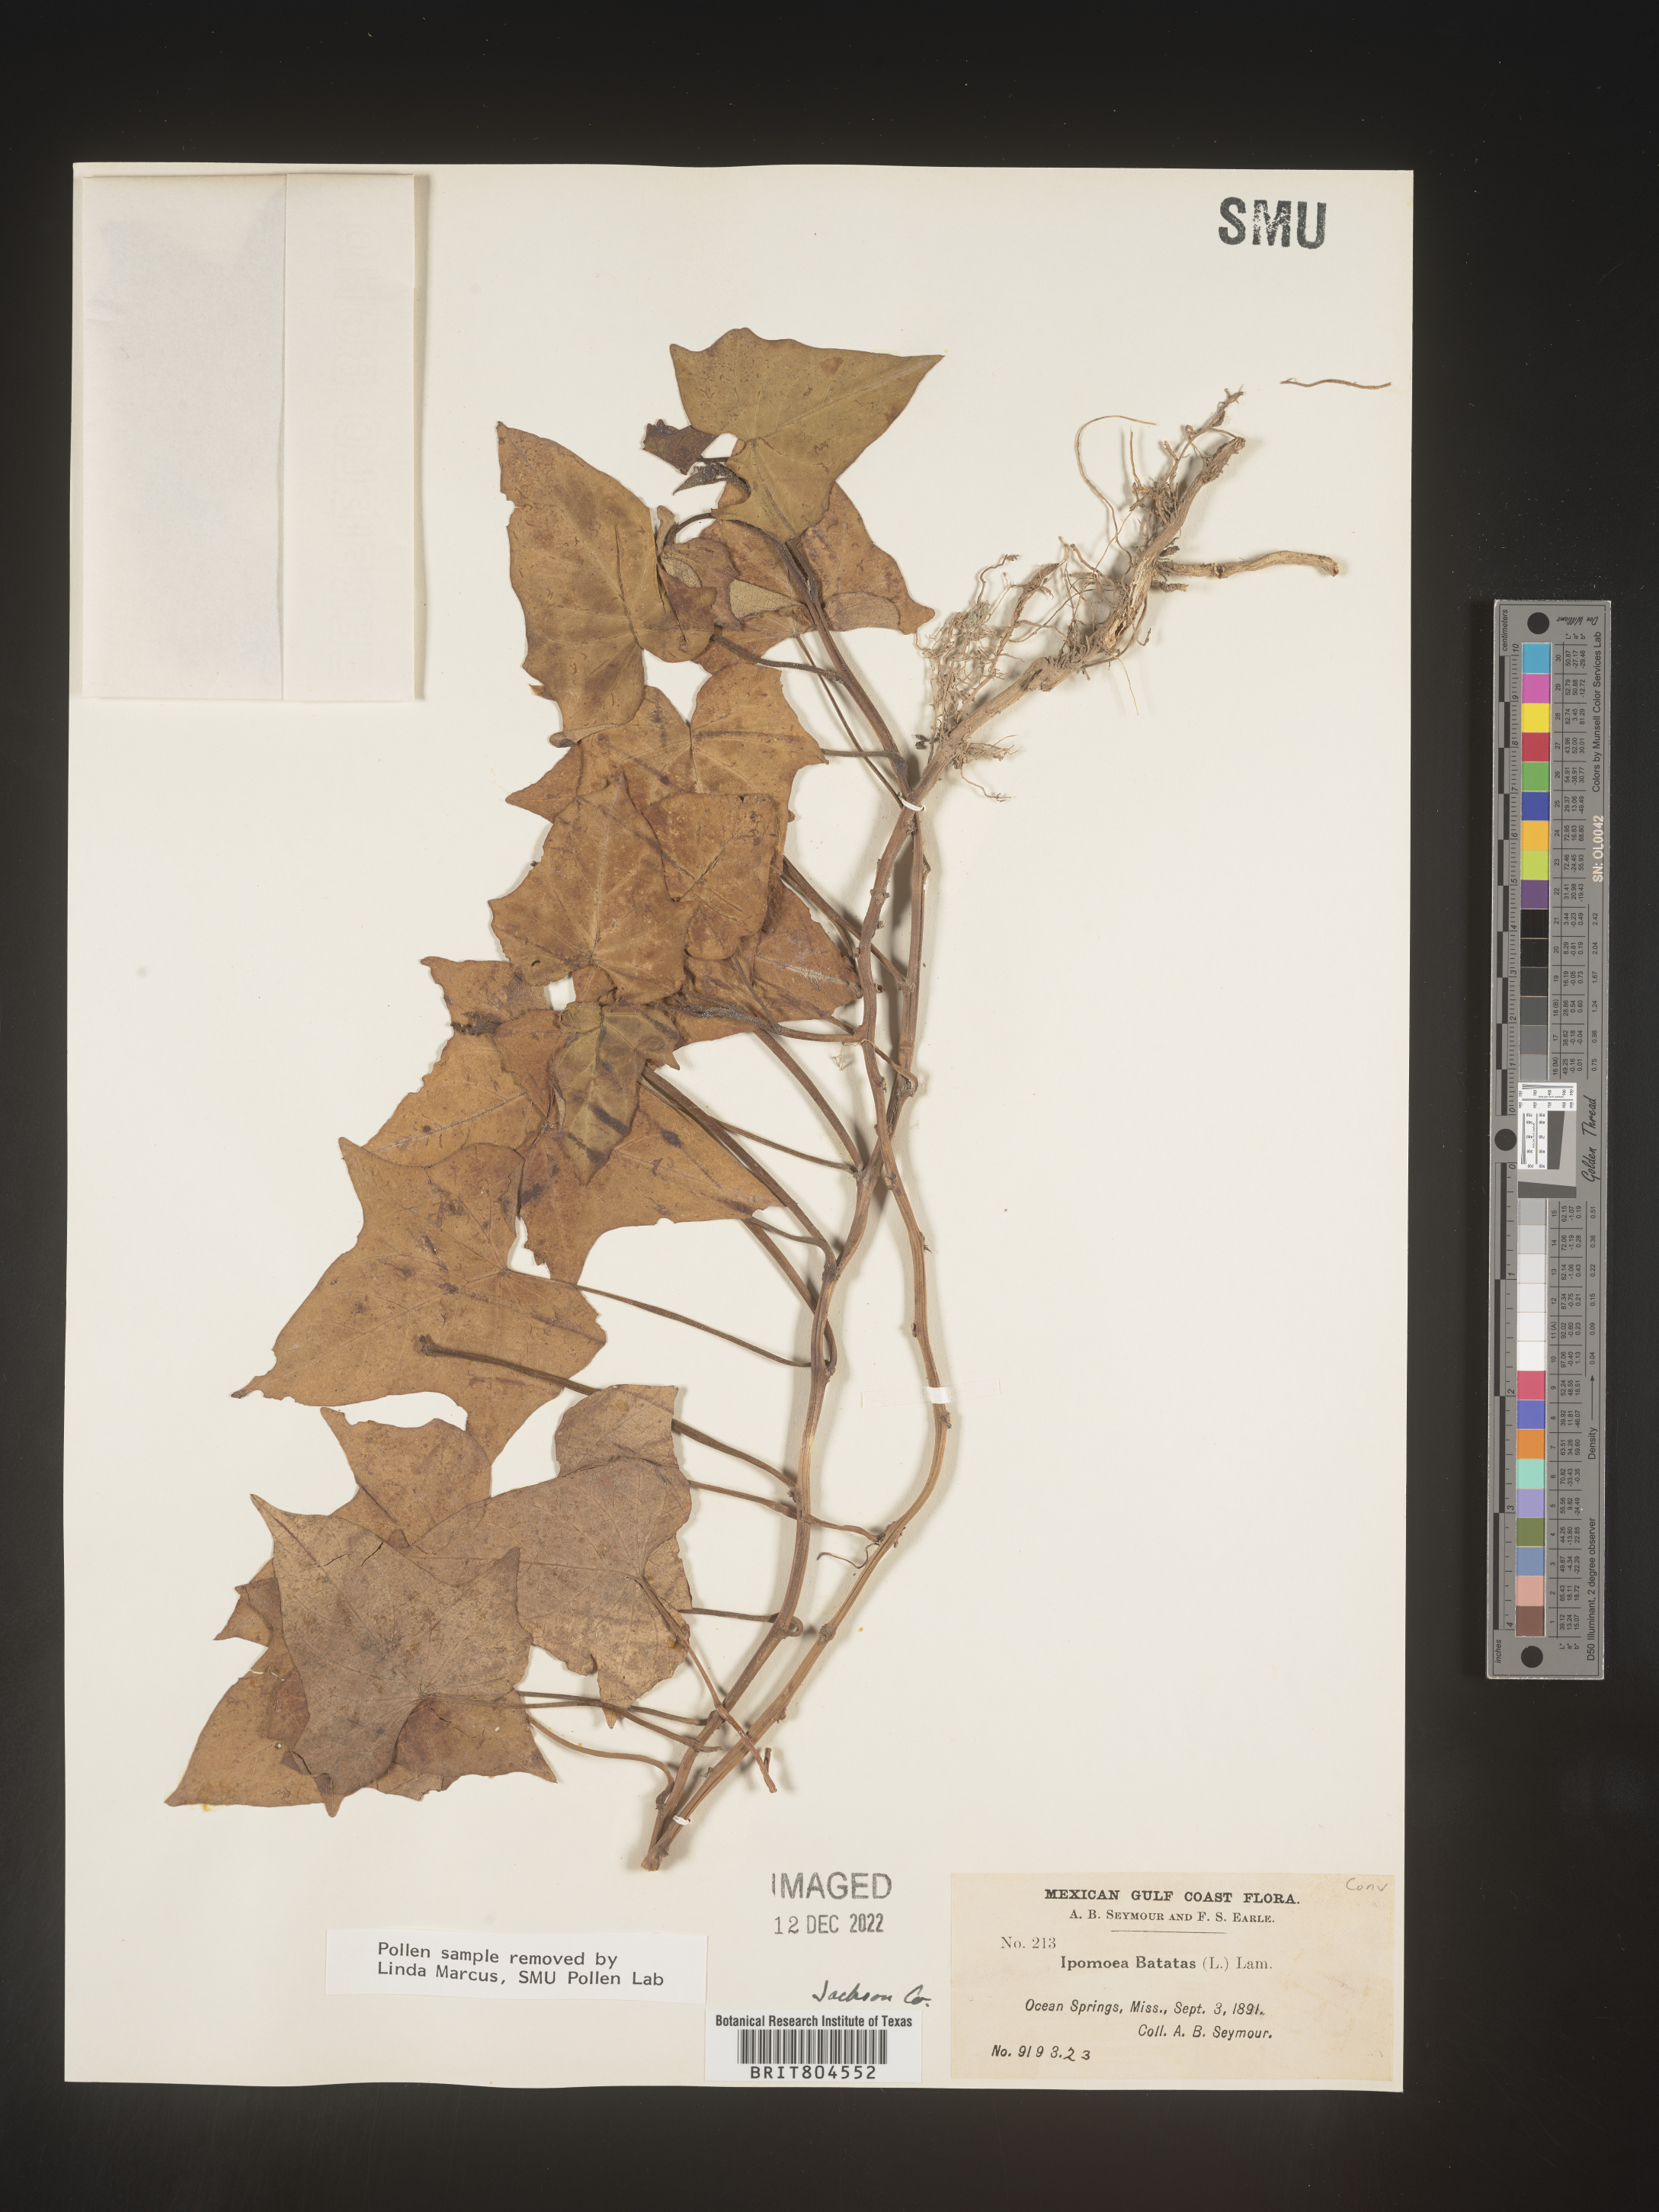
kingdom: Plantae
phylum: Tracheophyta
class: Magnoliopsida
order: Solanales
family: Convolvulaceae
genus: Ipomoea
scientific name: Ipomoea batatas
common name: Sweet-potato
